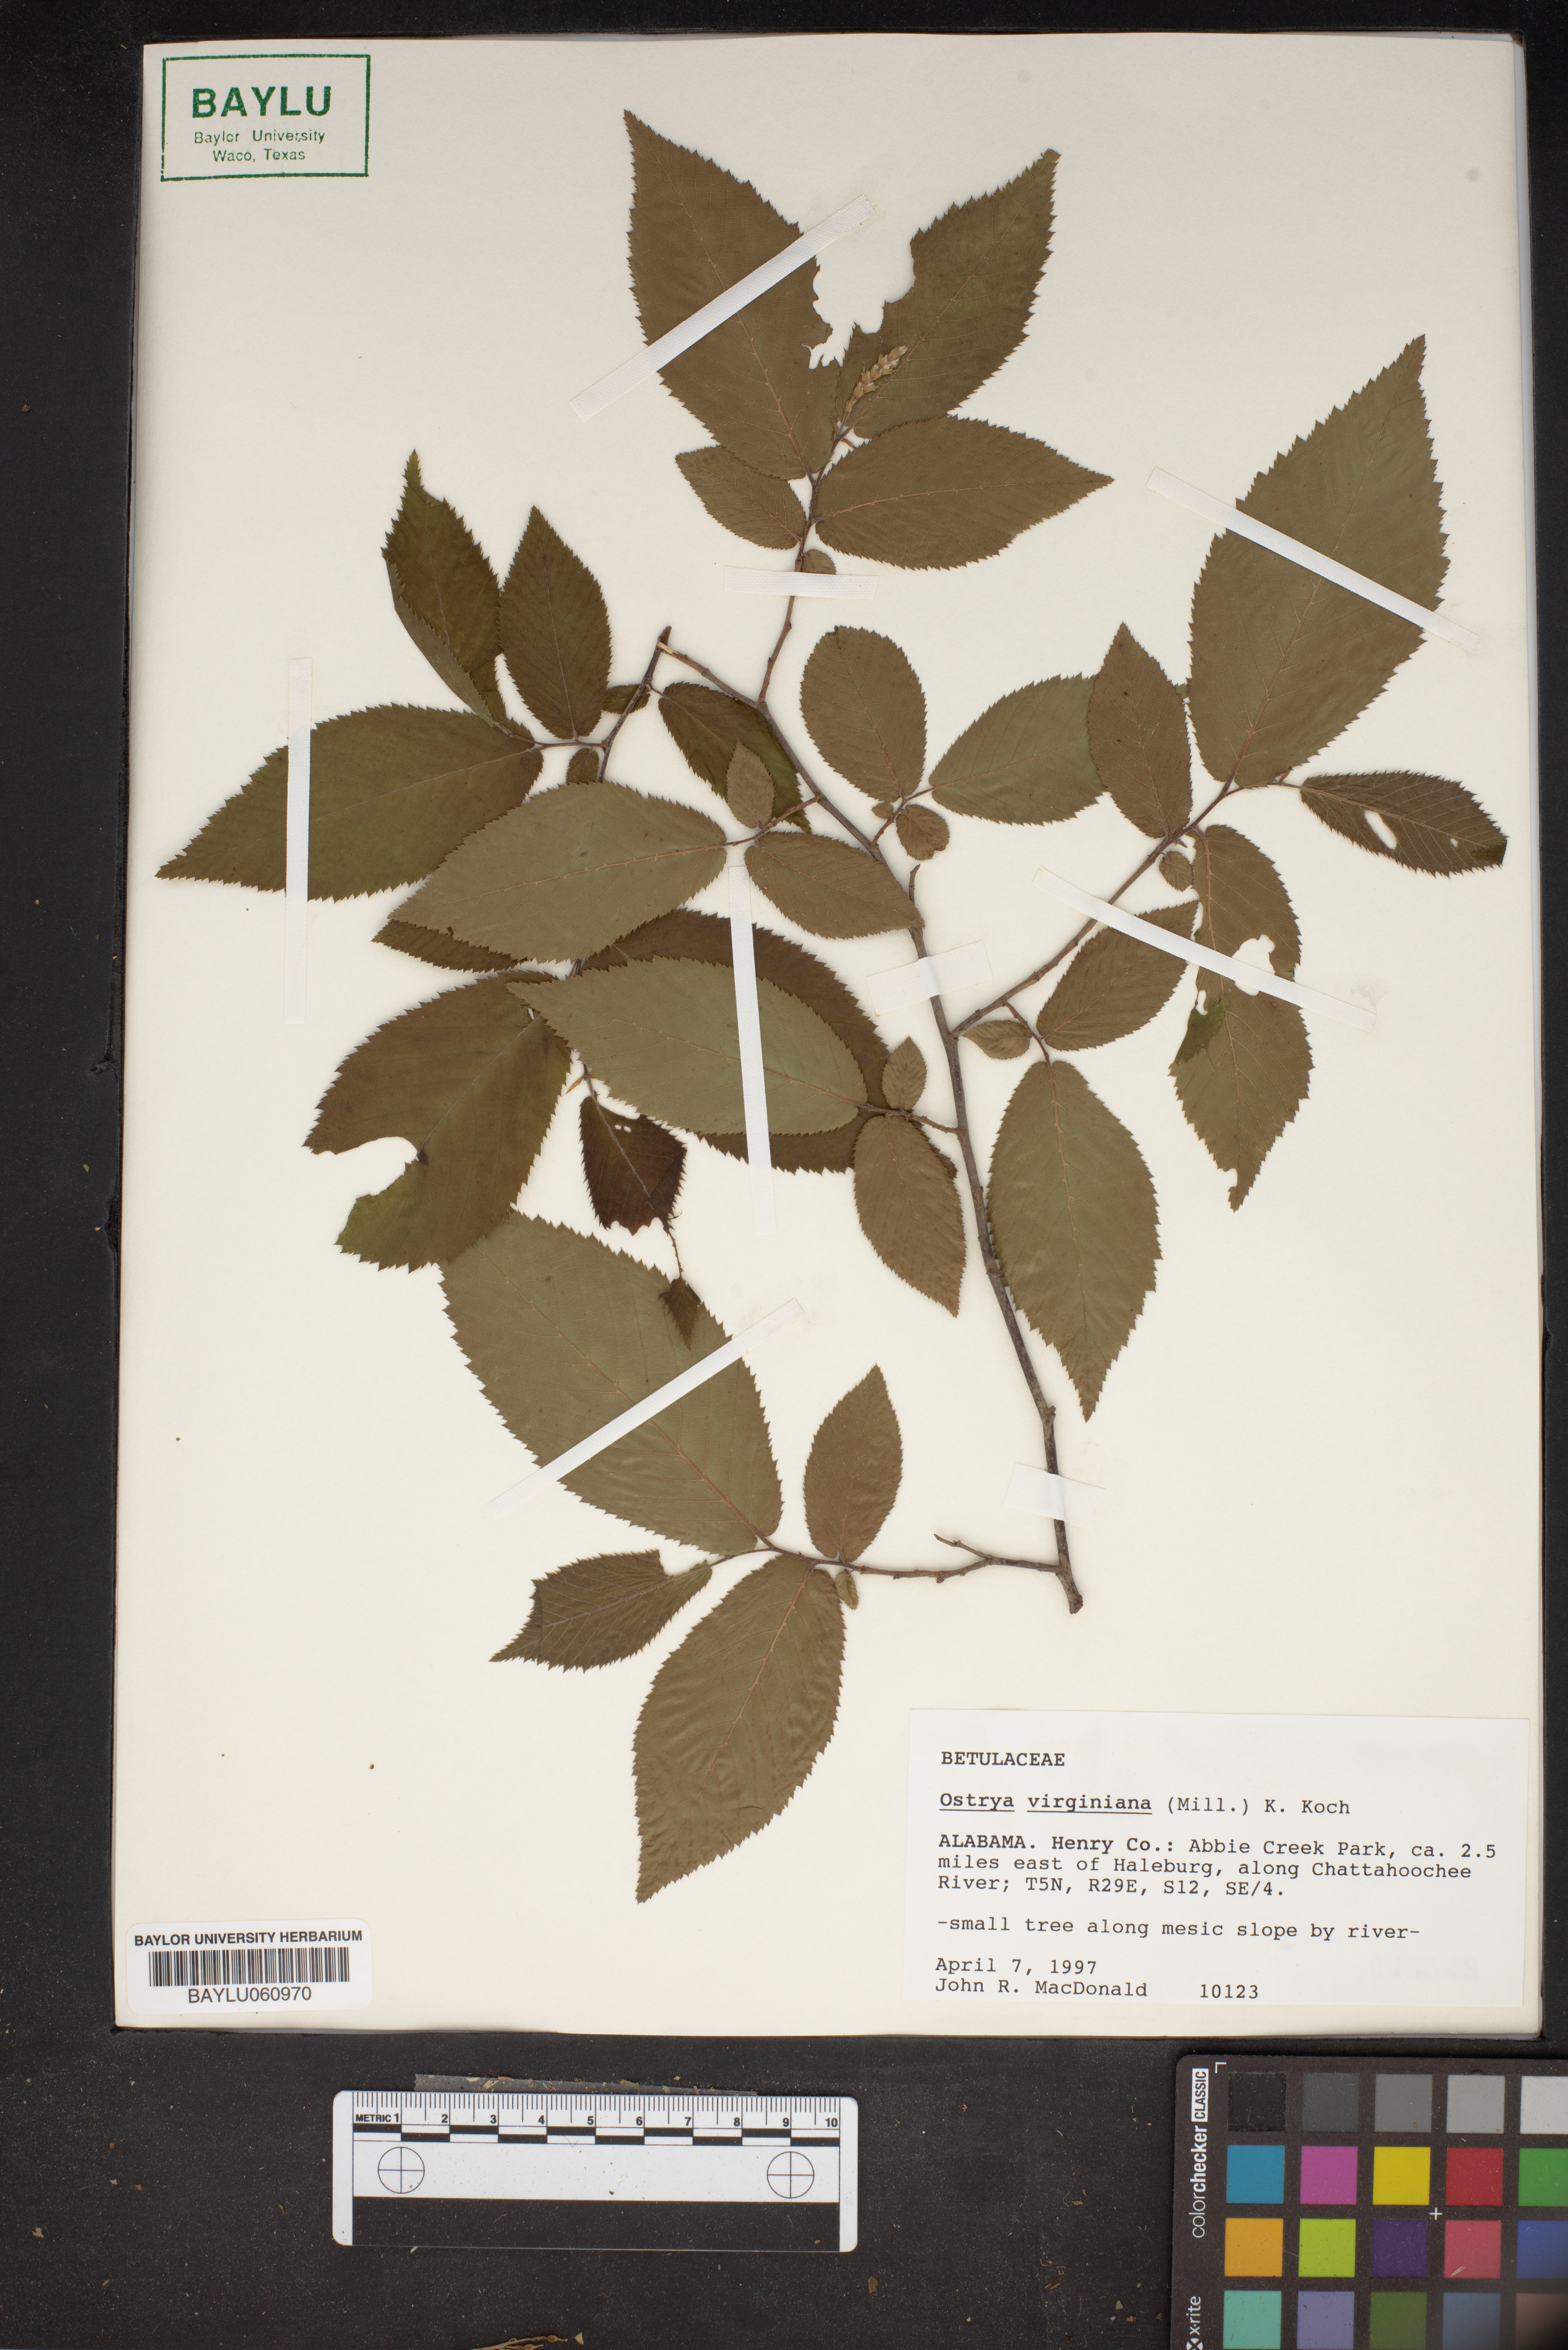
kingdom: Plantae
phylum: Tracheophyta
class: Magnoliopsida
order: Fagales
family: Betulaceae
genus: Ostrya
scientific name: Ostrya virginiana
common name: Ironwood
